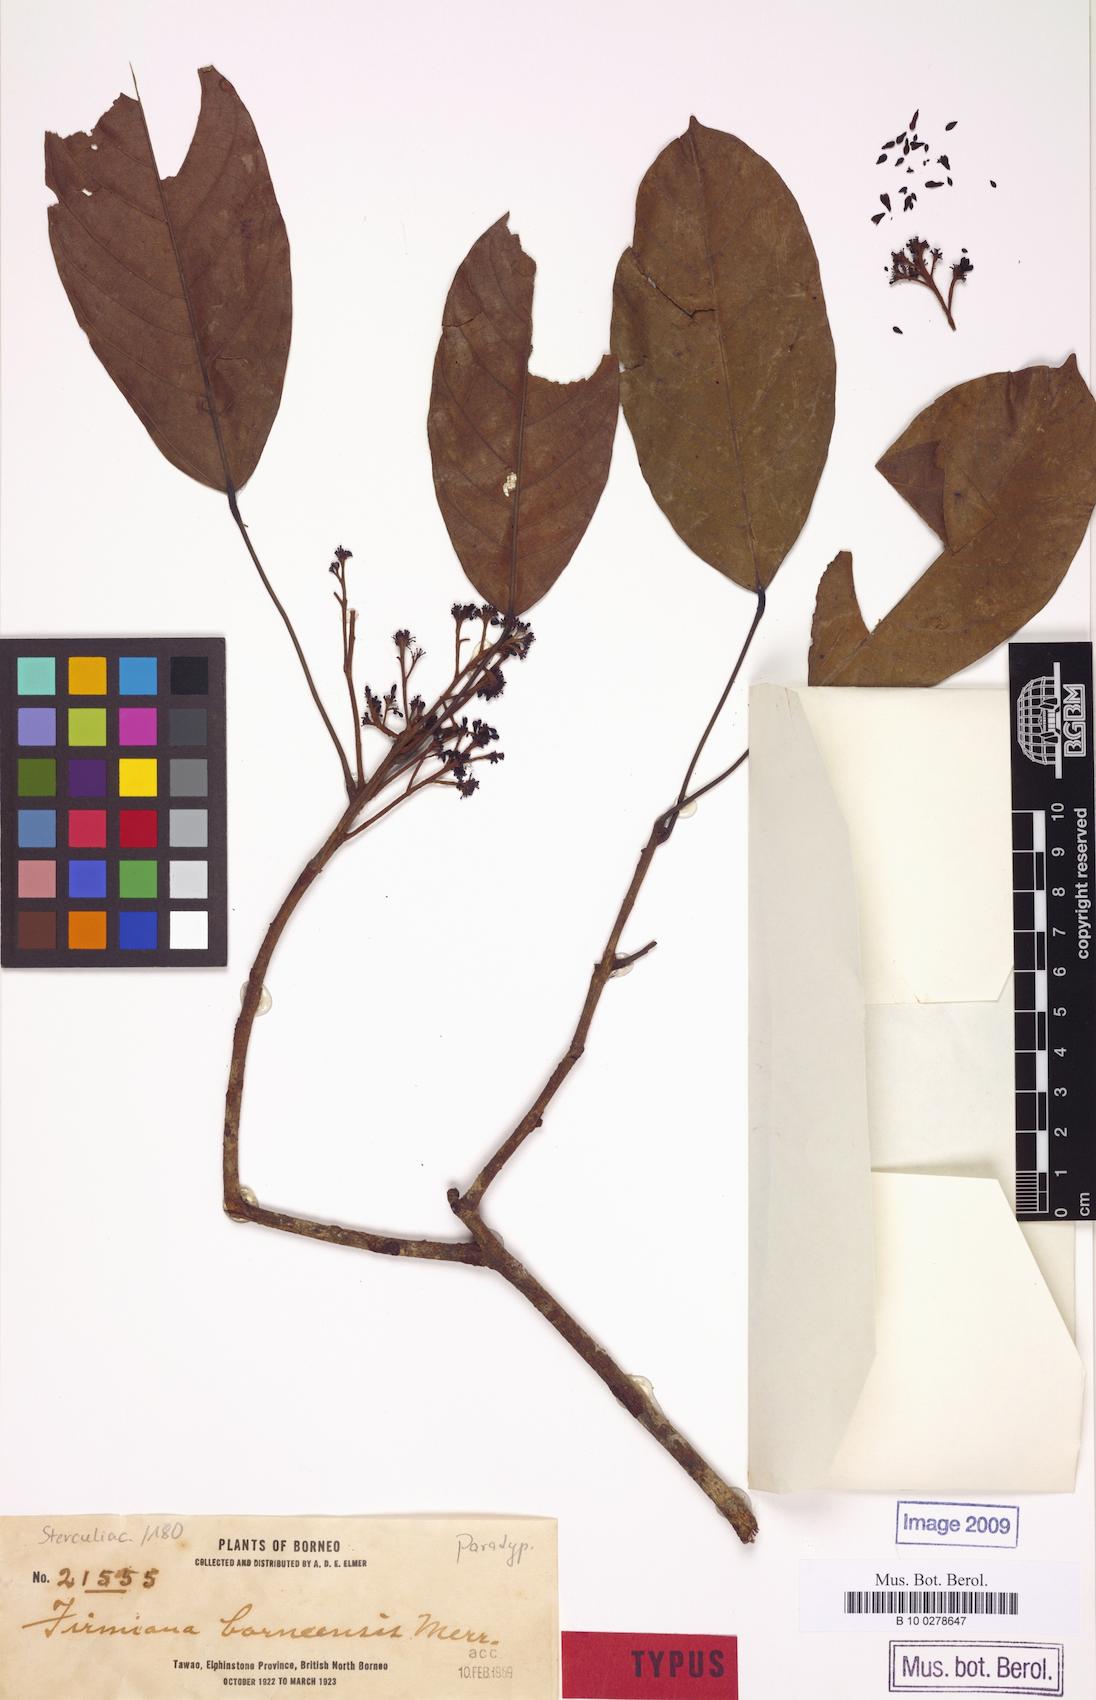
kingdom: Plantae
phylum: Tracheophyta
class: Magnoliopsida
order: Malvales
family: Malvaceae
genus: Scaphium
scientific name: Scaphium macropodum
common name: Malva nut
